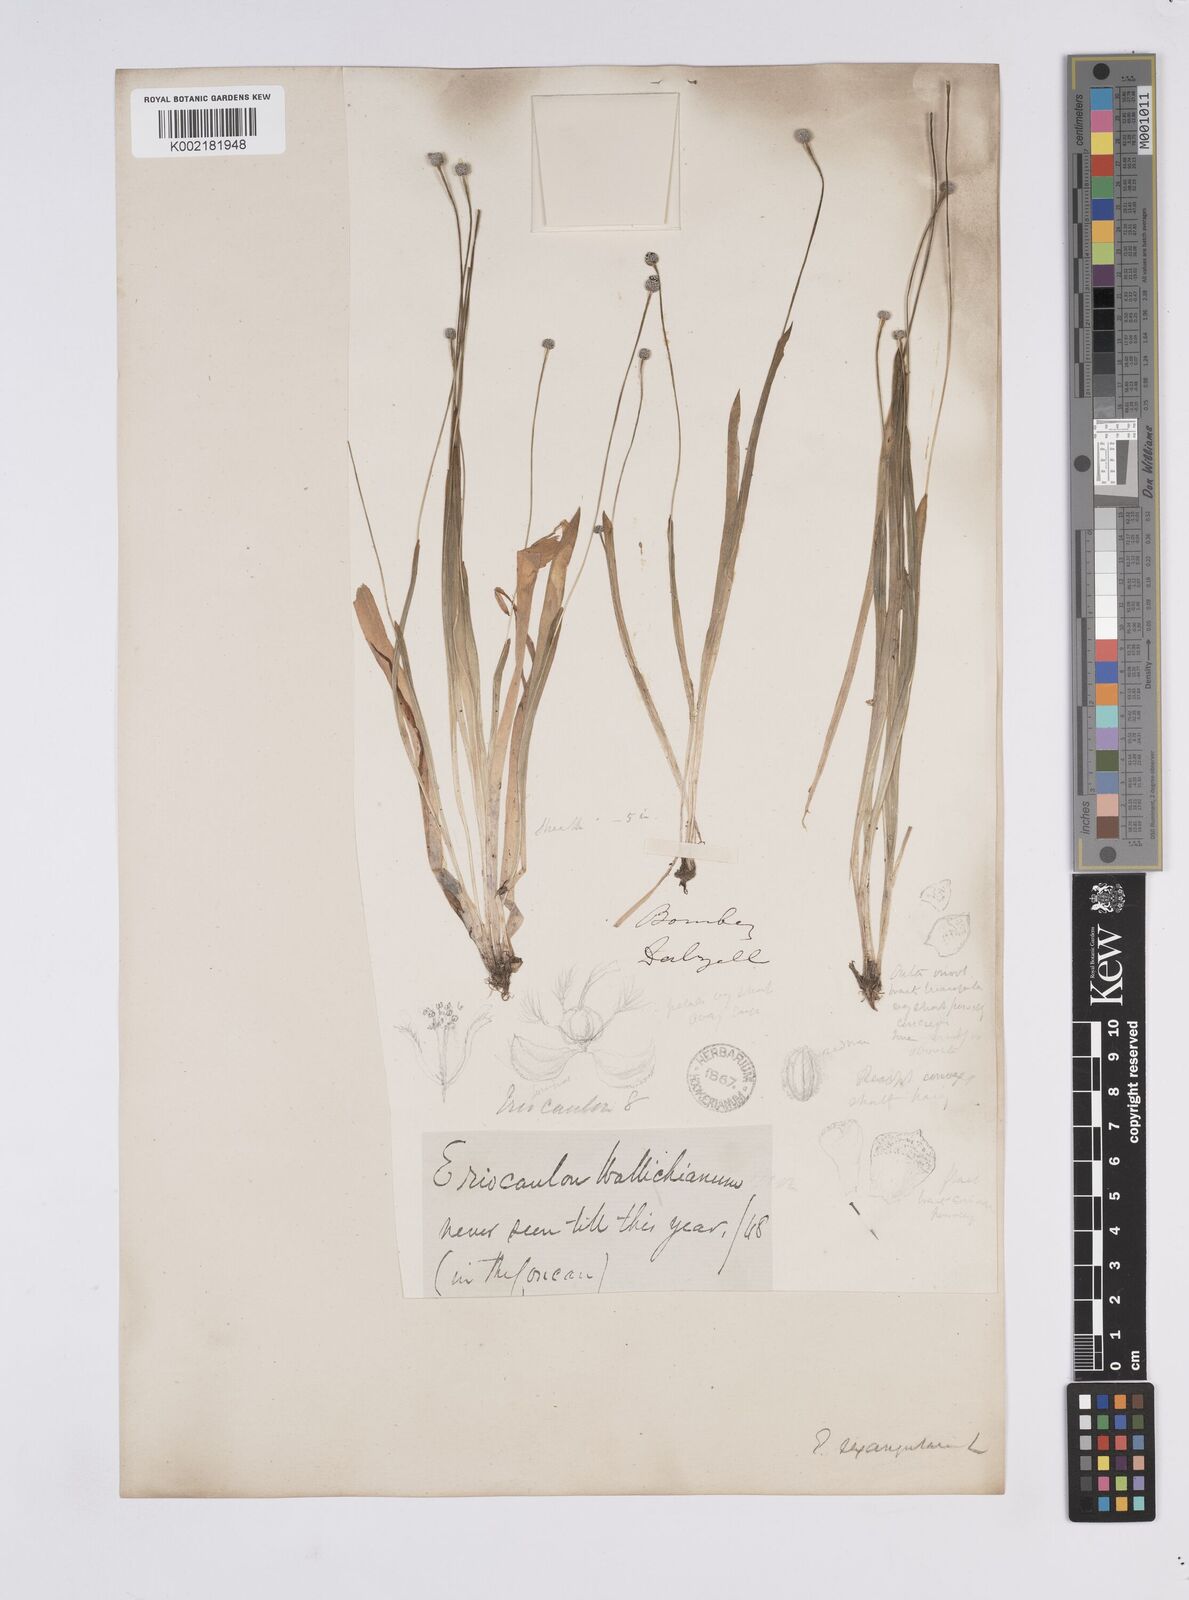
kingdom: Plantae
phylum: Tracheophyta
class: Liliopsida
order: Poales
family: Eriocaulaceae
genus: Eriocaulon
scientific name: Eriocaulon sexangulare
